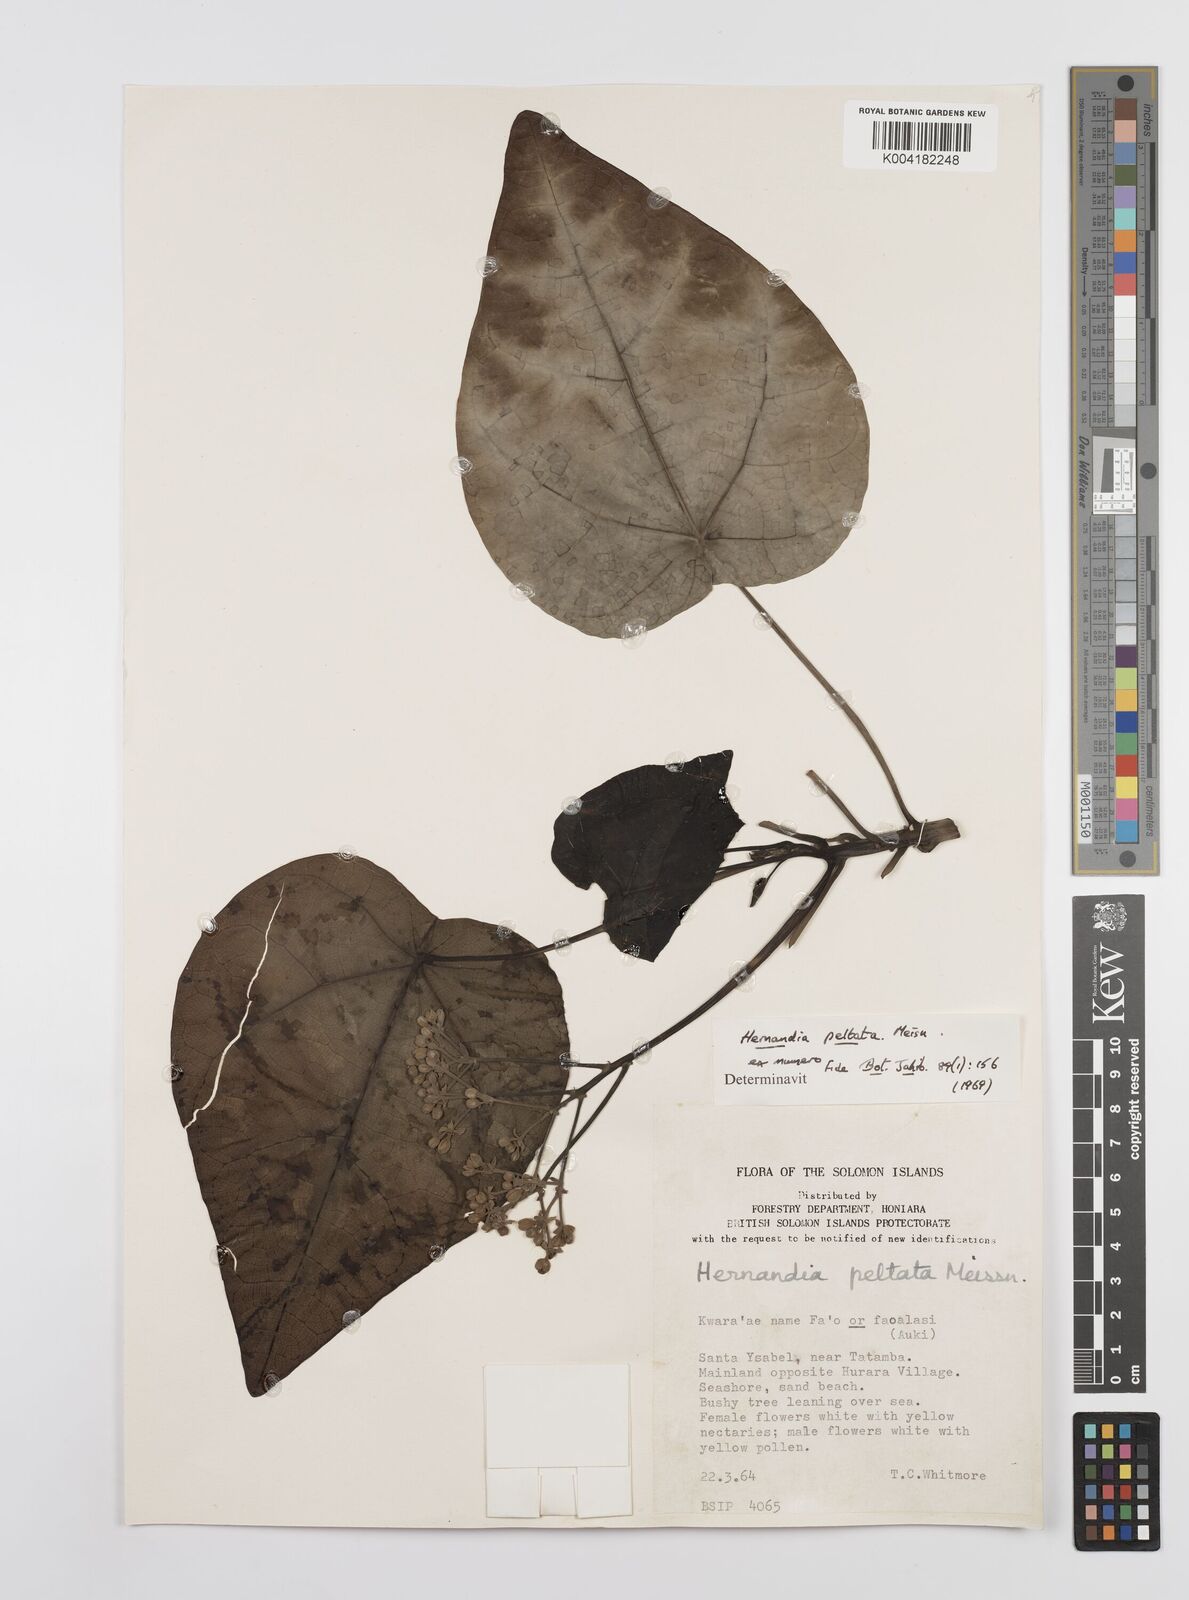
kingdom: Plantae
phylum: Tracheophyta
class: Magnoliopsida
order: Laurales
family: Hernandiaceae
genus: Hernandia
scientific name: Hernandia nymphaeifolia
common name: Sea hearse
